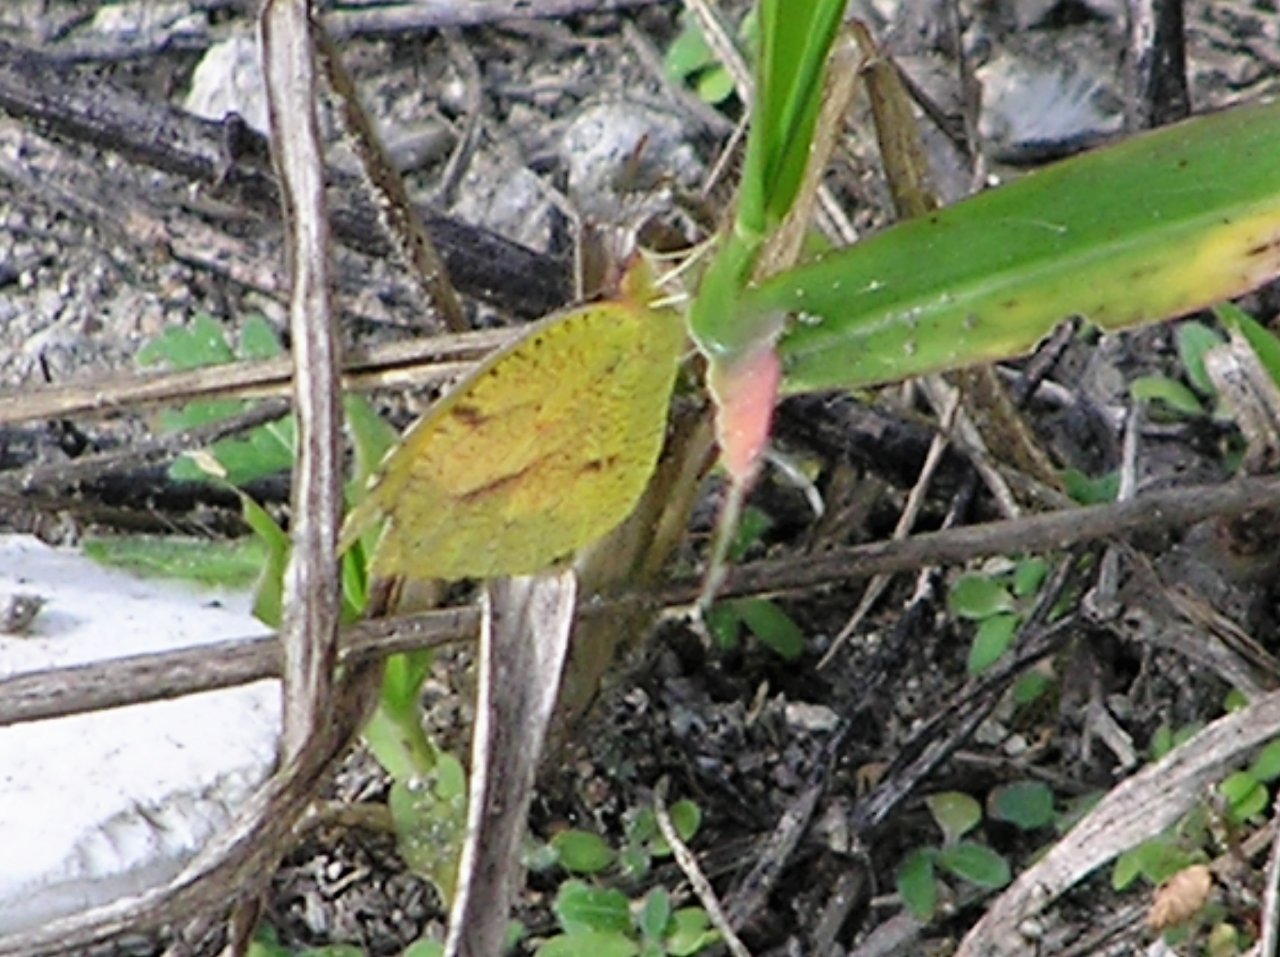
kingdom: Animalia
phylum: Arthropoda
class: Insecta
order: Lepidoptera
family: Pieridae
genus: Abaeis
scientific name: Abaeis nicippe
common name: Sleepy Orange
